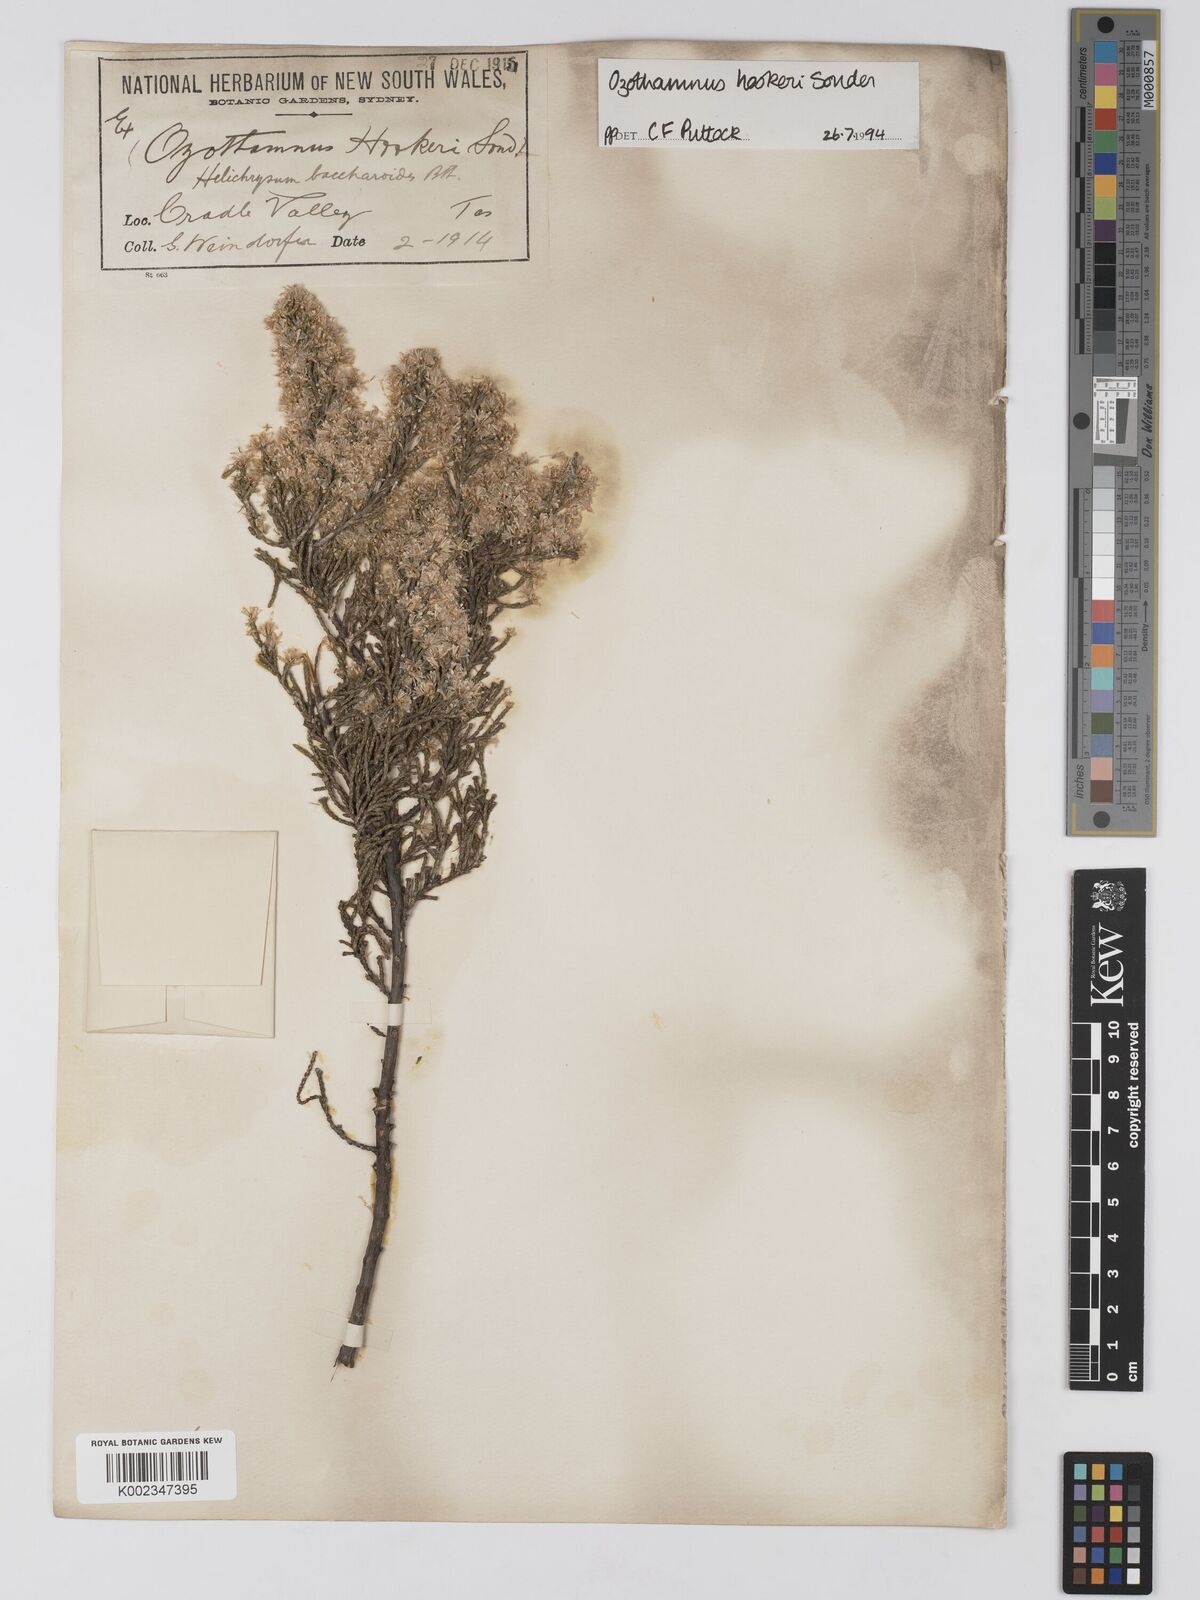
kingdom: Plantae
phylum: Tracheophyta
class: Magnoliopsida
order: Asterales
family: Asteraceae
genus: Ozothamnus
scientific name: Ozothamnus hookeri
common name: Kerosene-bush
